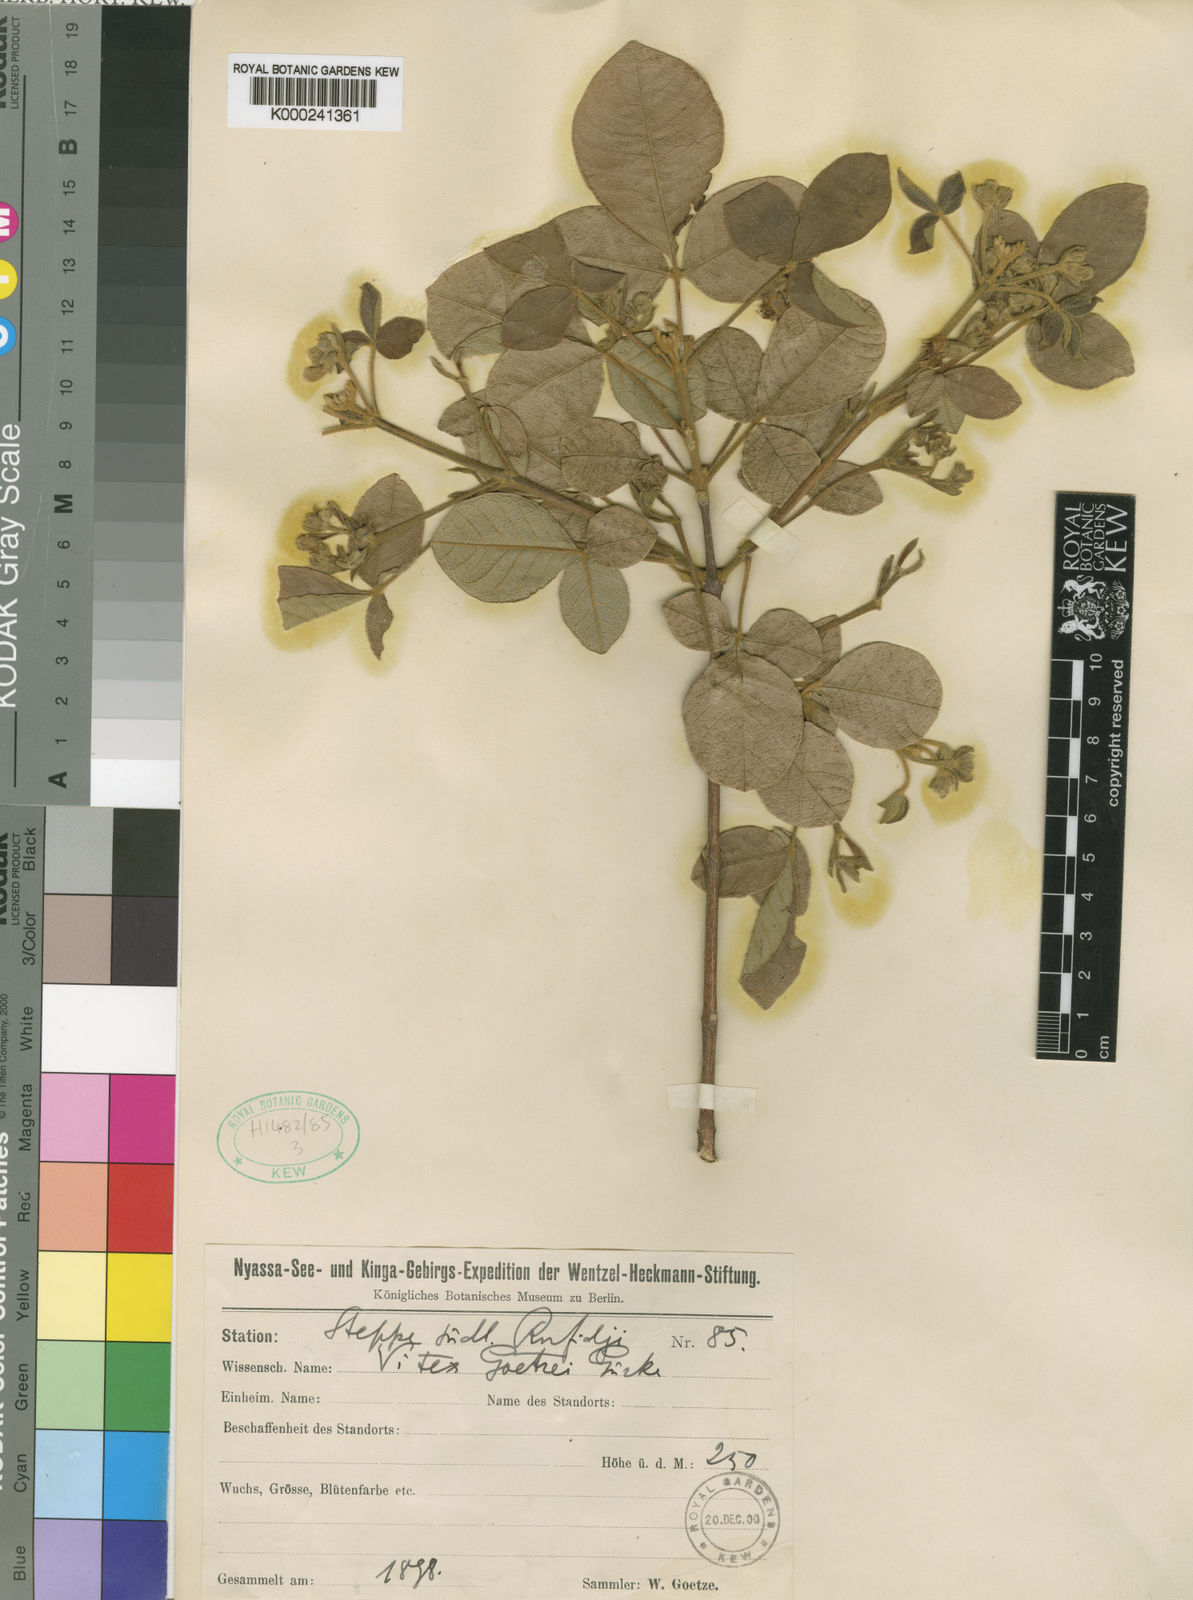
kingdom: Plantae
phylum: Tracheophyta
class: Magnoliopsida
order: Lamiales
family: Lamiaceae
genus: Vitex
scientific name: Vitex mombassae
